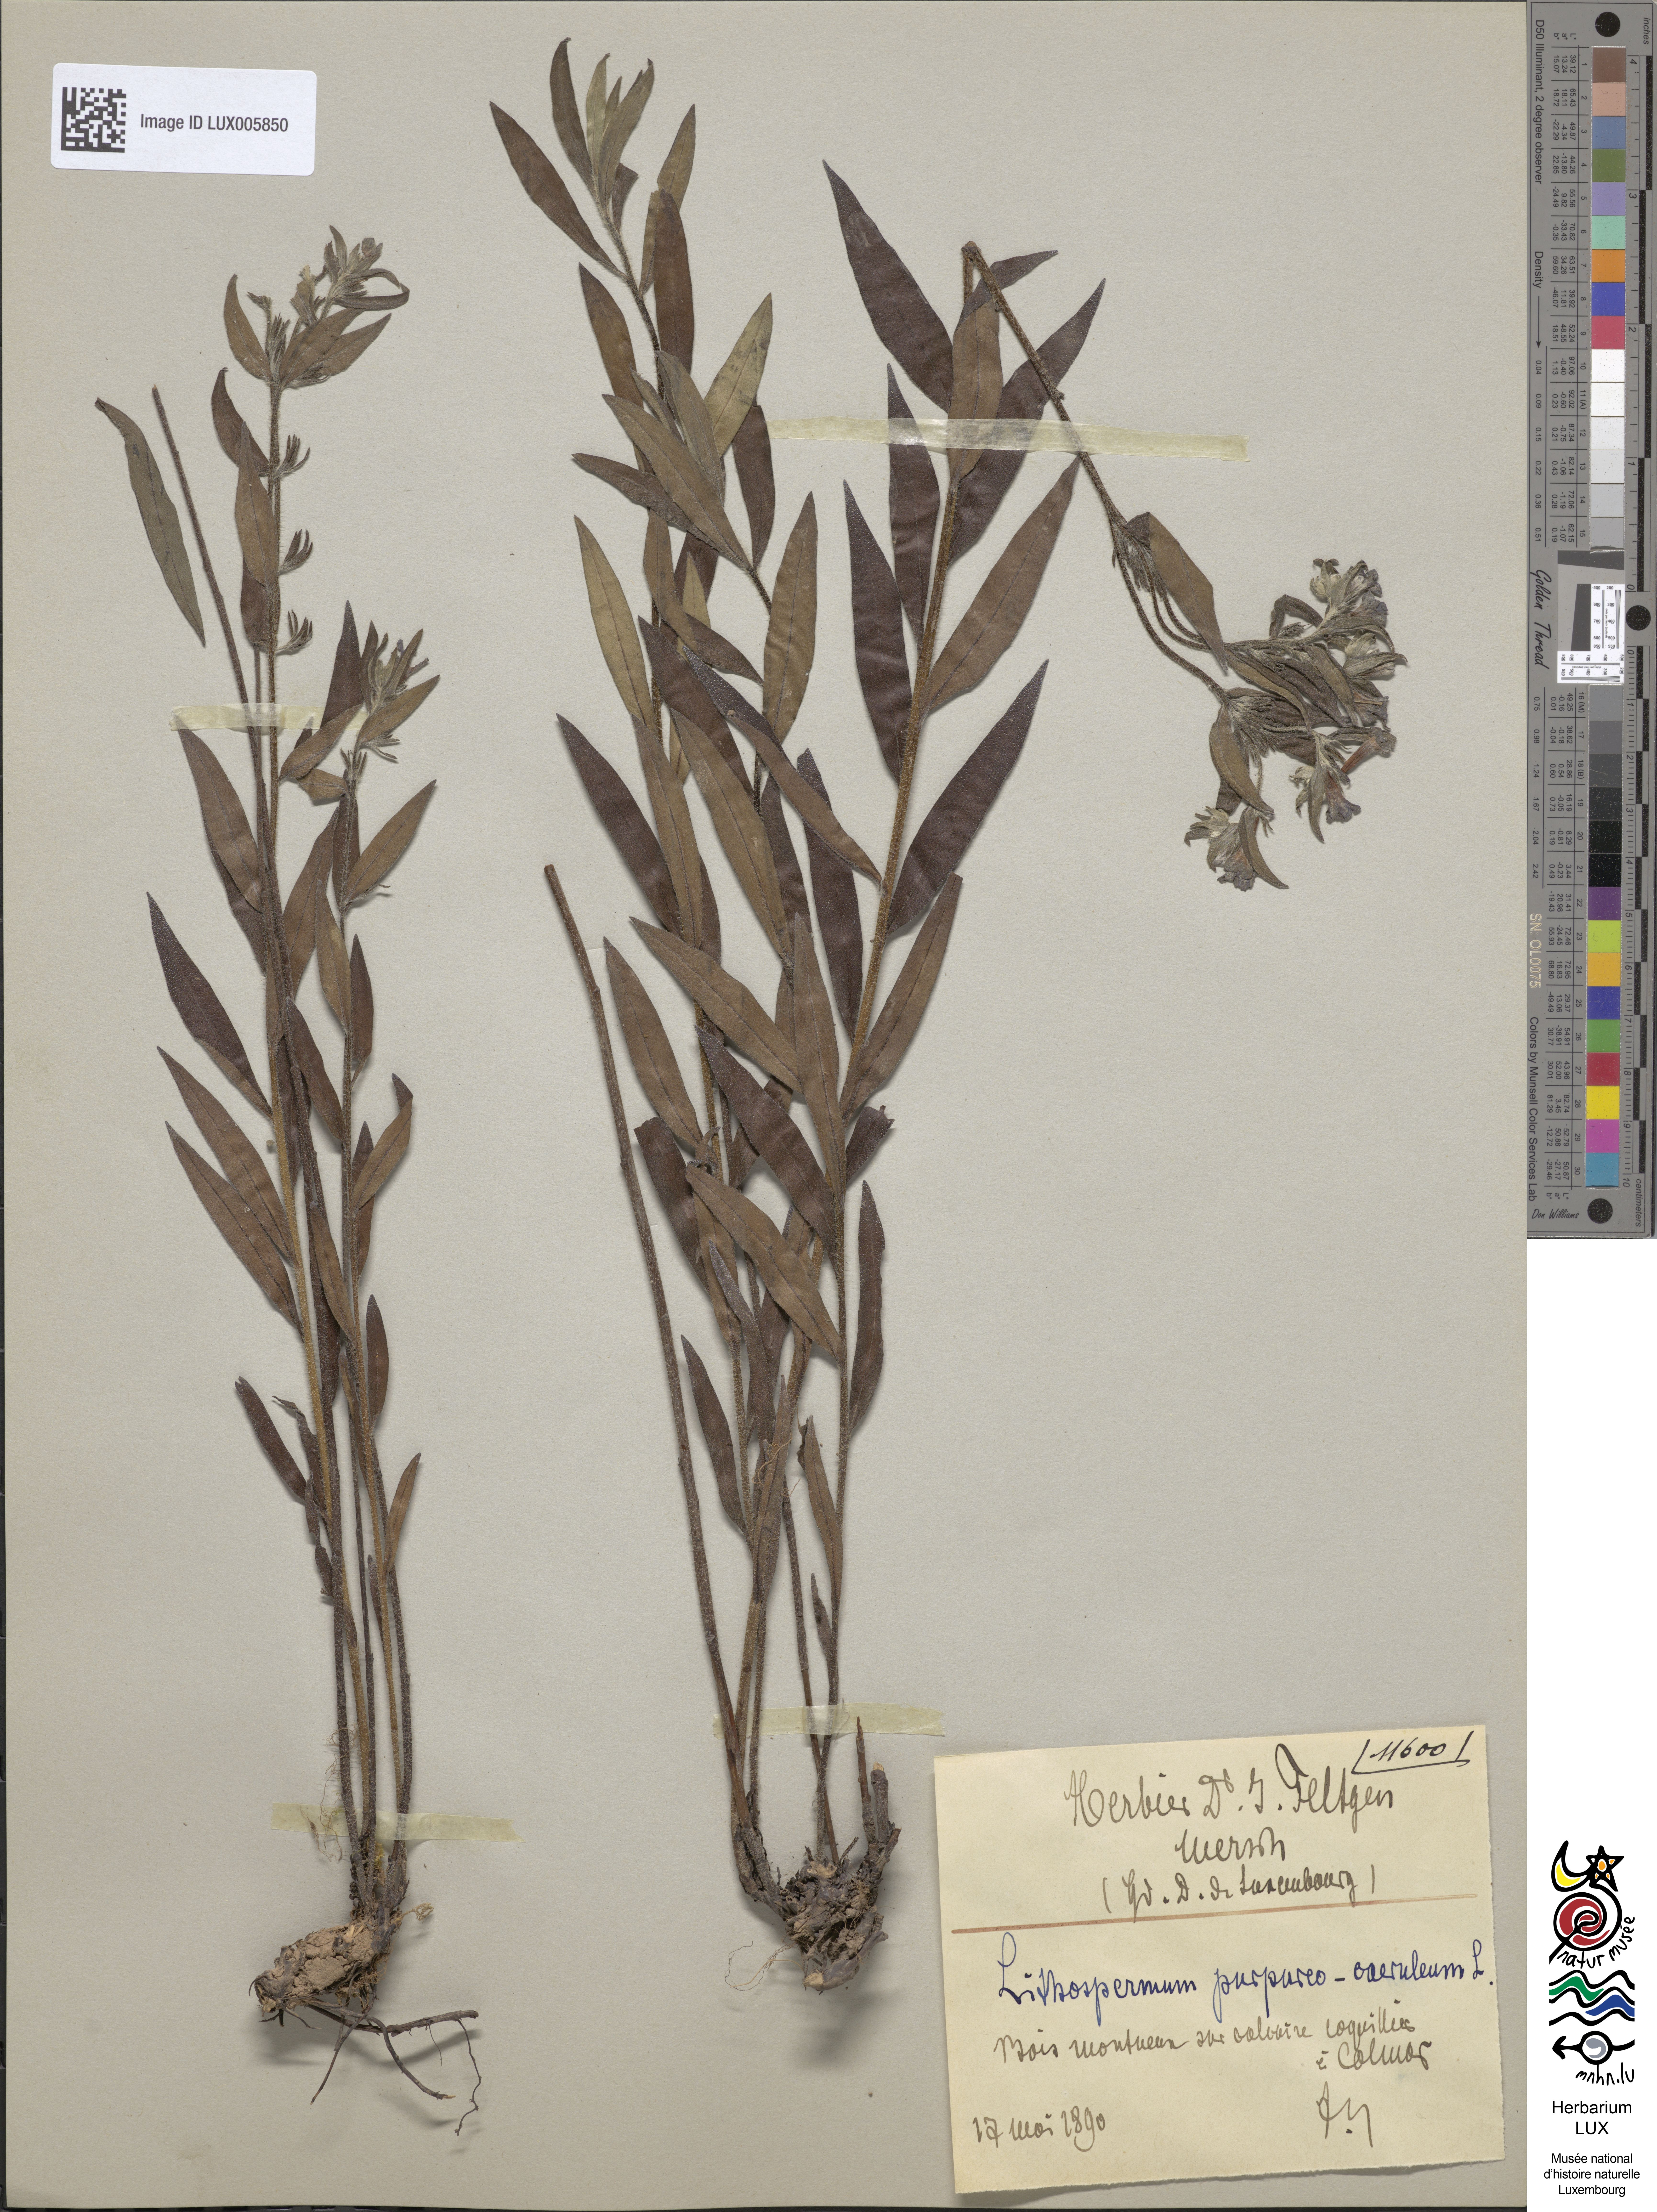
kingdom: Plantae
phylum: Tracheophyta
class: Magnoliopsida
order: Boraginales
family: Boraginaceae
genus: Aegonychon
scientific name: Aegonychon purpurocaeruleum
